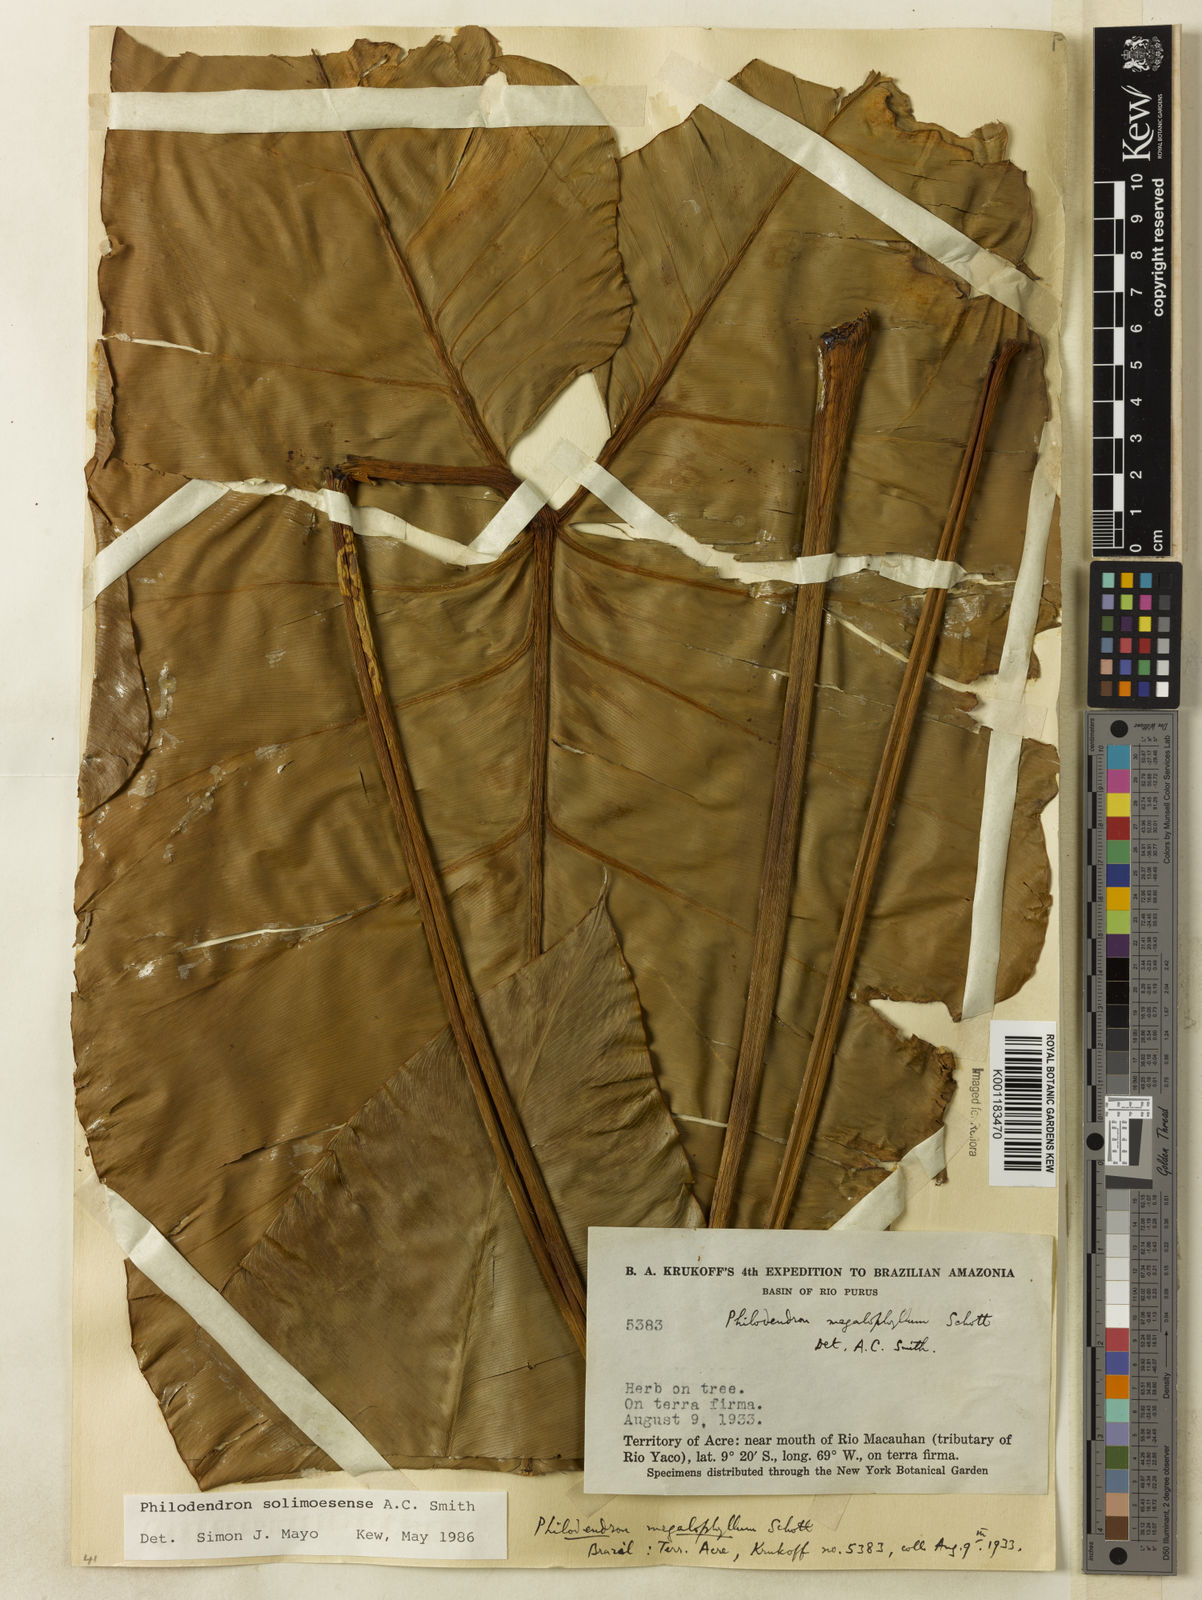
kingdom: Plantae
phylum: Tracheophyta
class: Liliopsida
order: Alismatales
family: Araceae
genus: Thaumatophyllum
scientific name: Thaumatophyllum solimoesense
